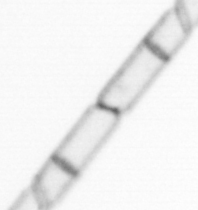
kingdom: Chromista
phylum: Ochrophyta
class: Bacillariophyceae
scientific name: Bacillariophyceae
